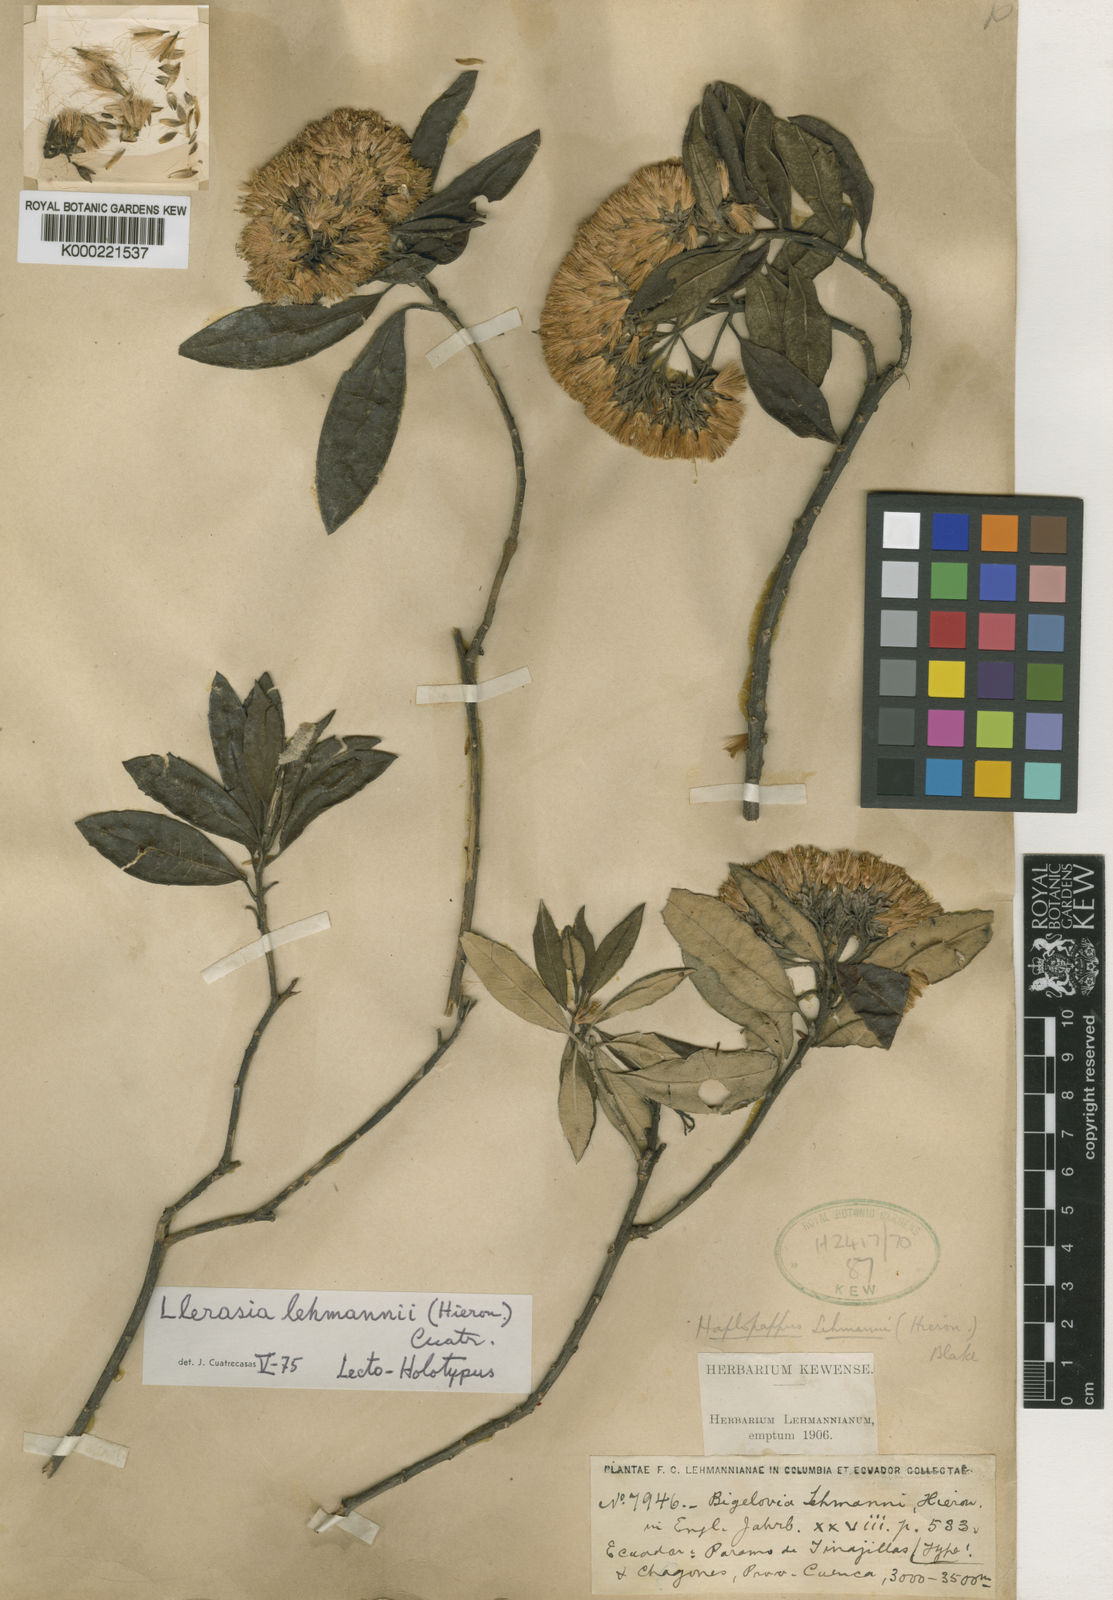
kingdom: Plantae
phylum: Tracheophyta
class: Magnoliopsida
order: Asterales
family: Asteraceae
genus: Llerasia
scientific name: Llerasia lindenii
